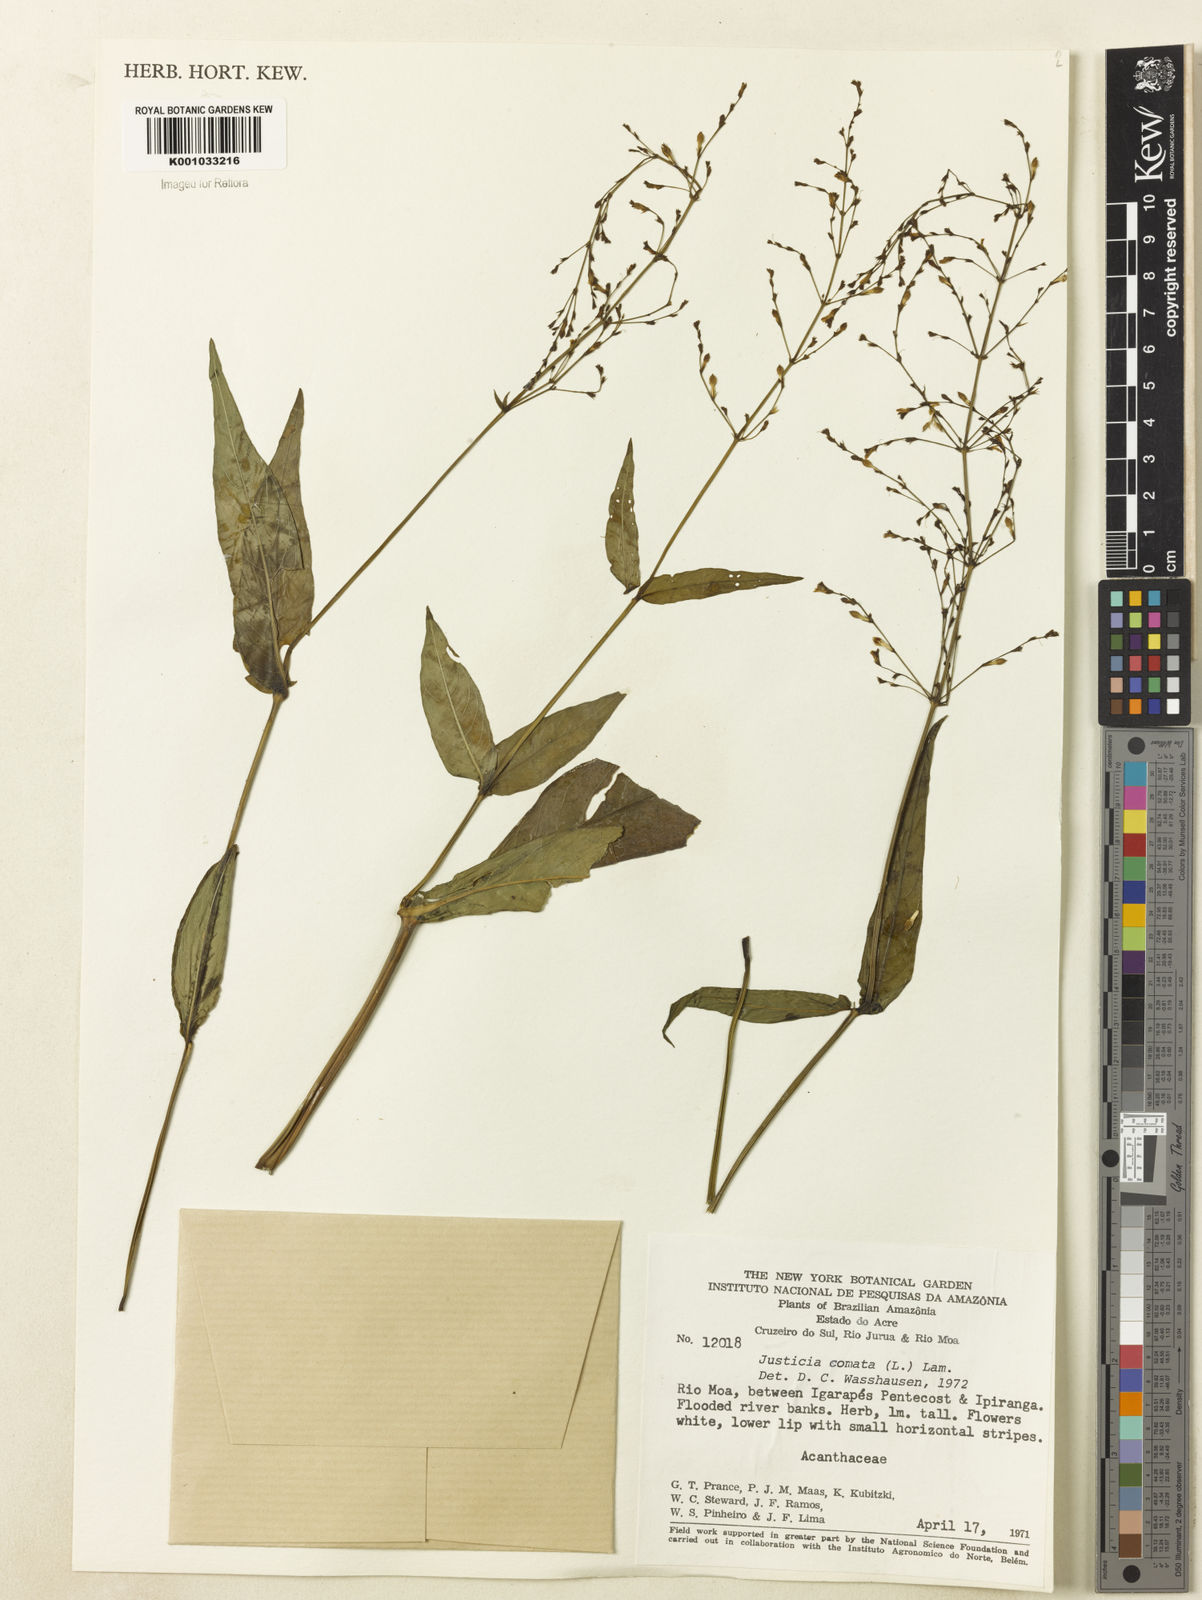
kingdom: Plantae
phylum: Tracheophyta
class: Magnoliopsida
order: Lamiales
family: Acanthaceae
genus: Dianthera
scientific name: Dianthera comata
